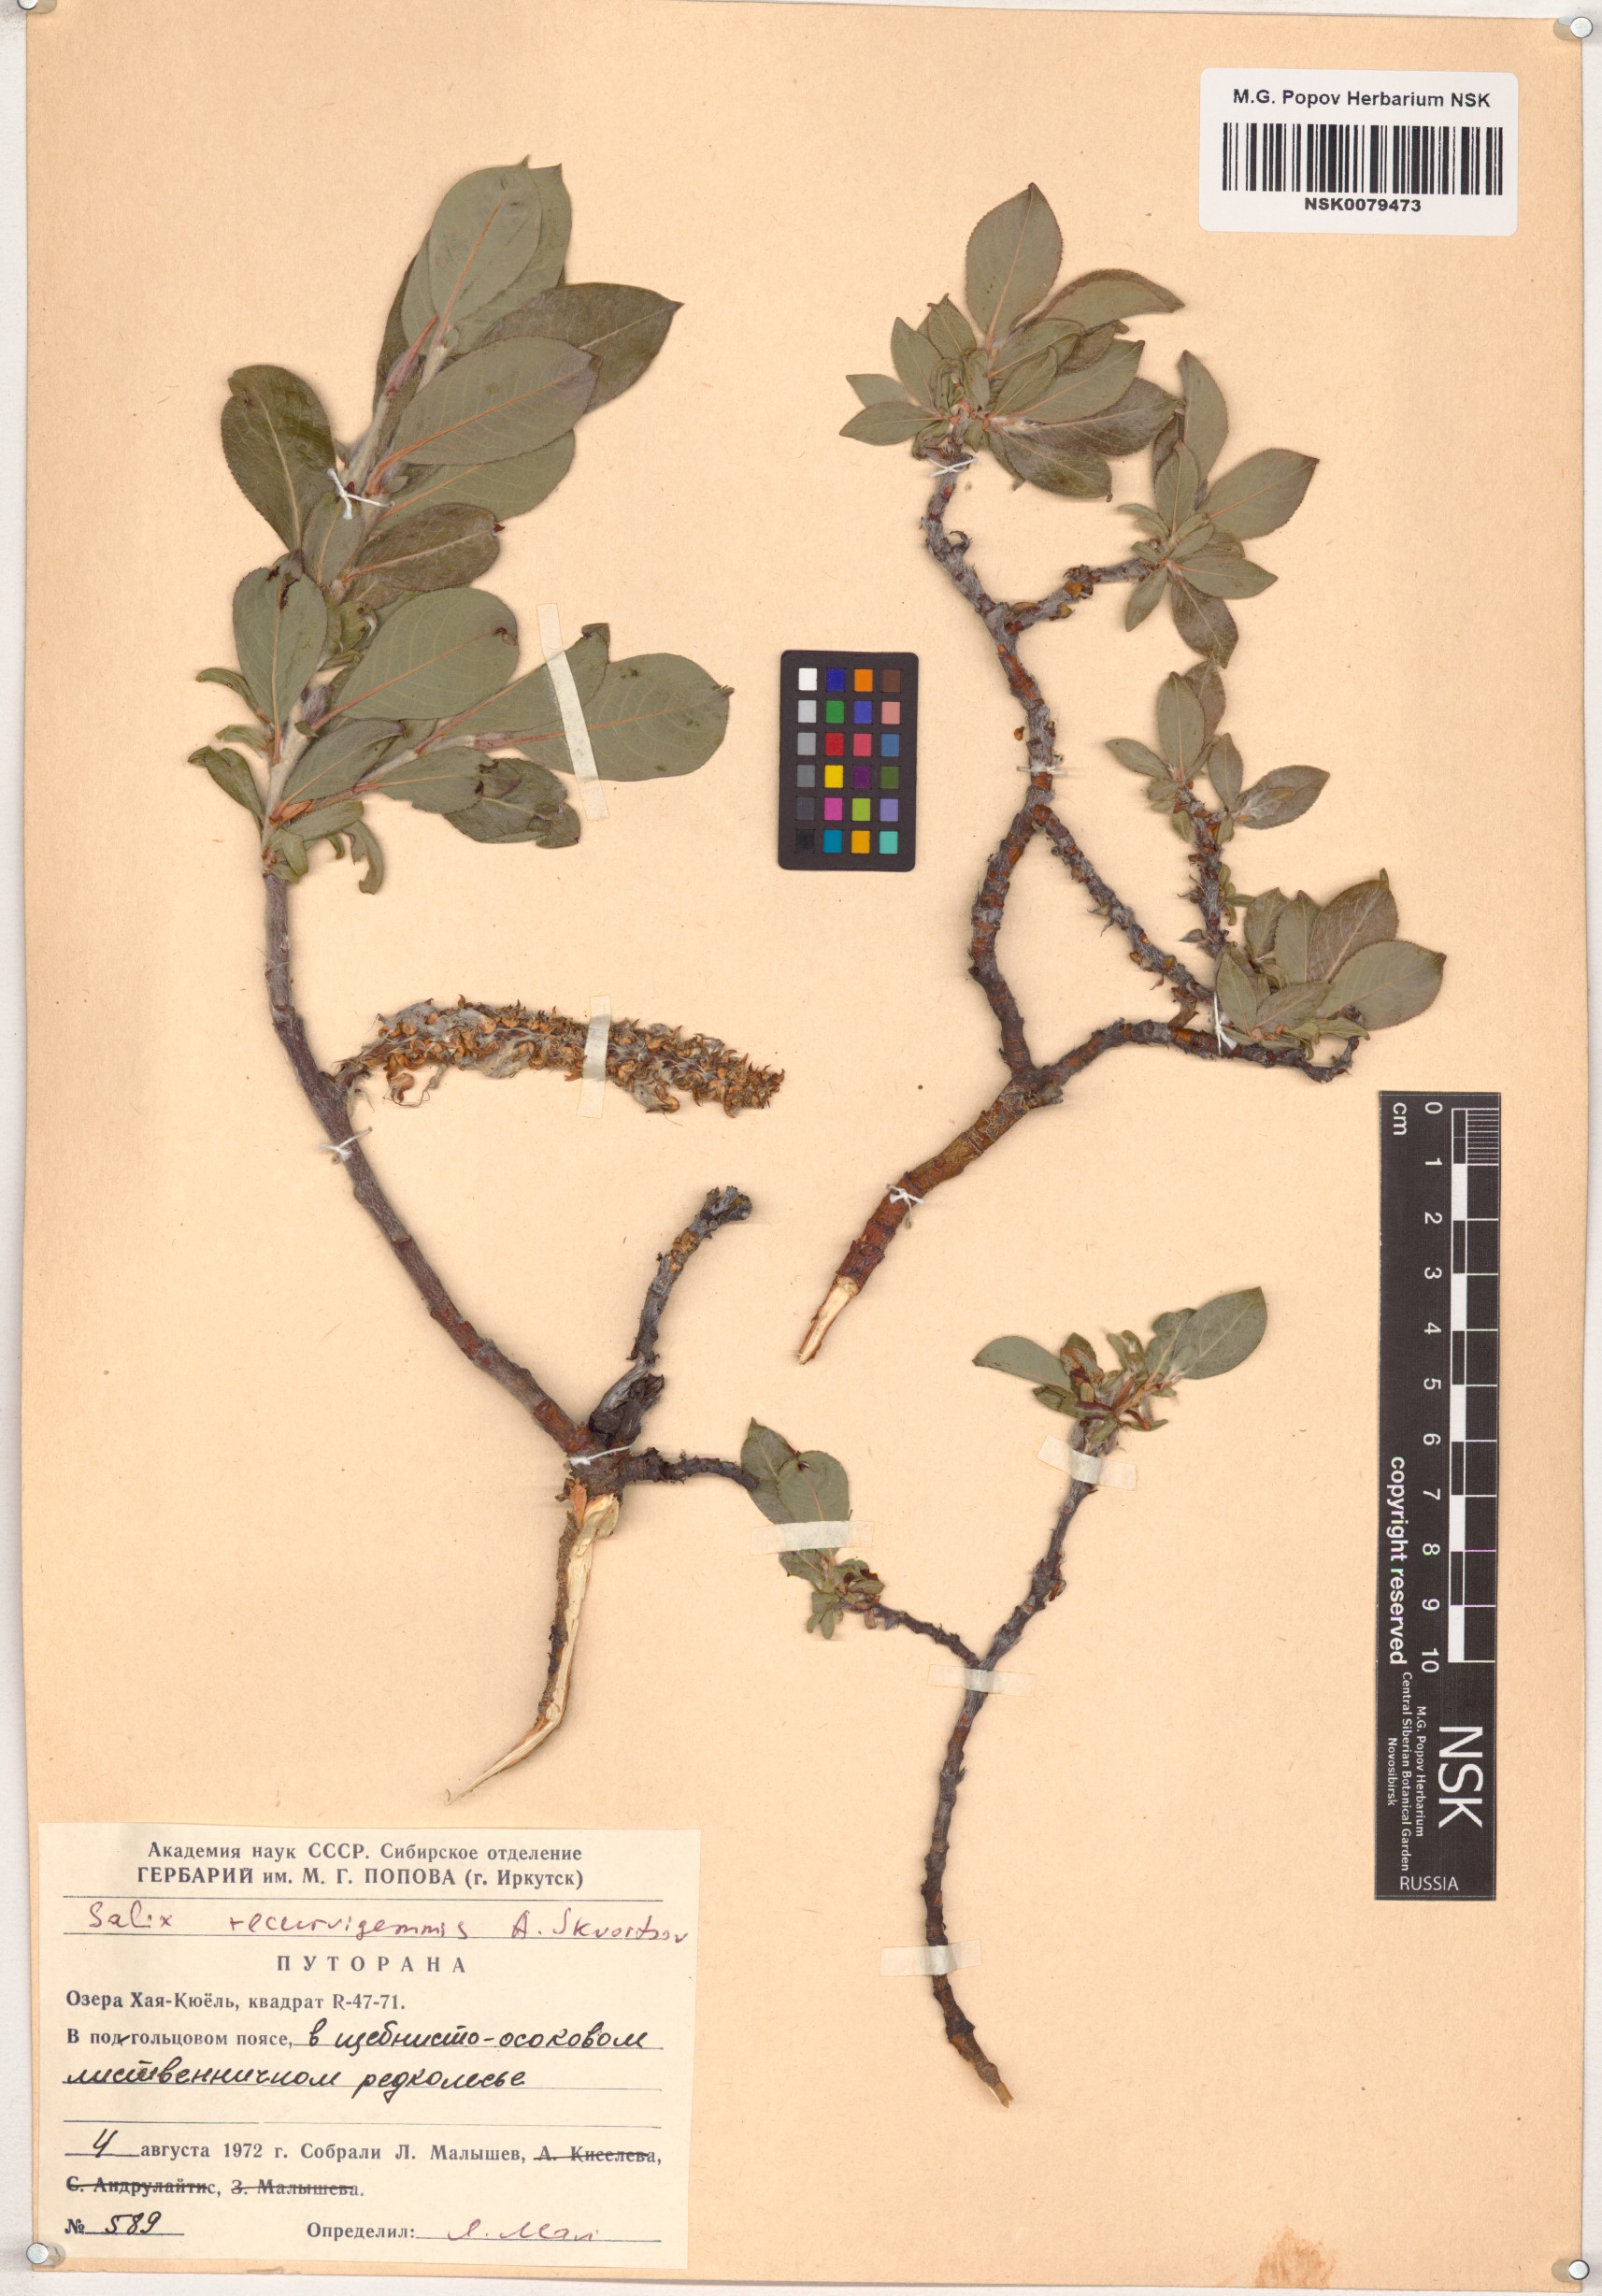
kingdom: Plantae
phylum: Tracheophyta
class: Magnoliopsida
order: Malpighiales
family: Salicaceae
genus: Salix
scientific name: Salix recurvigemmata
